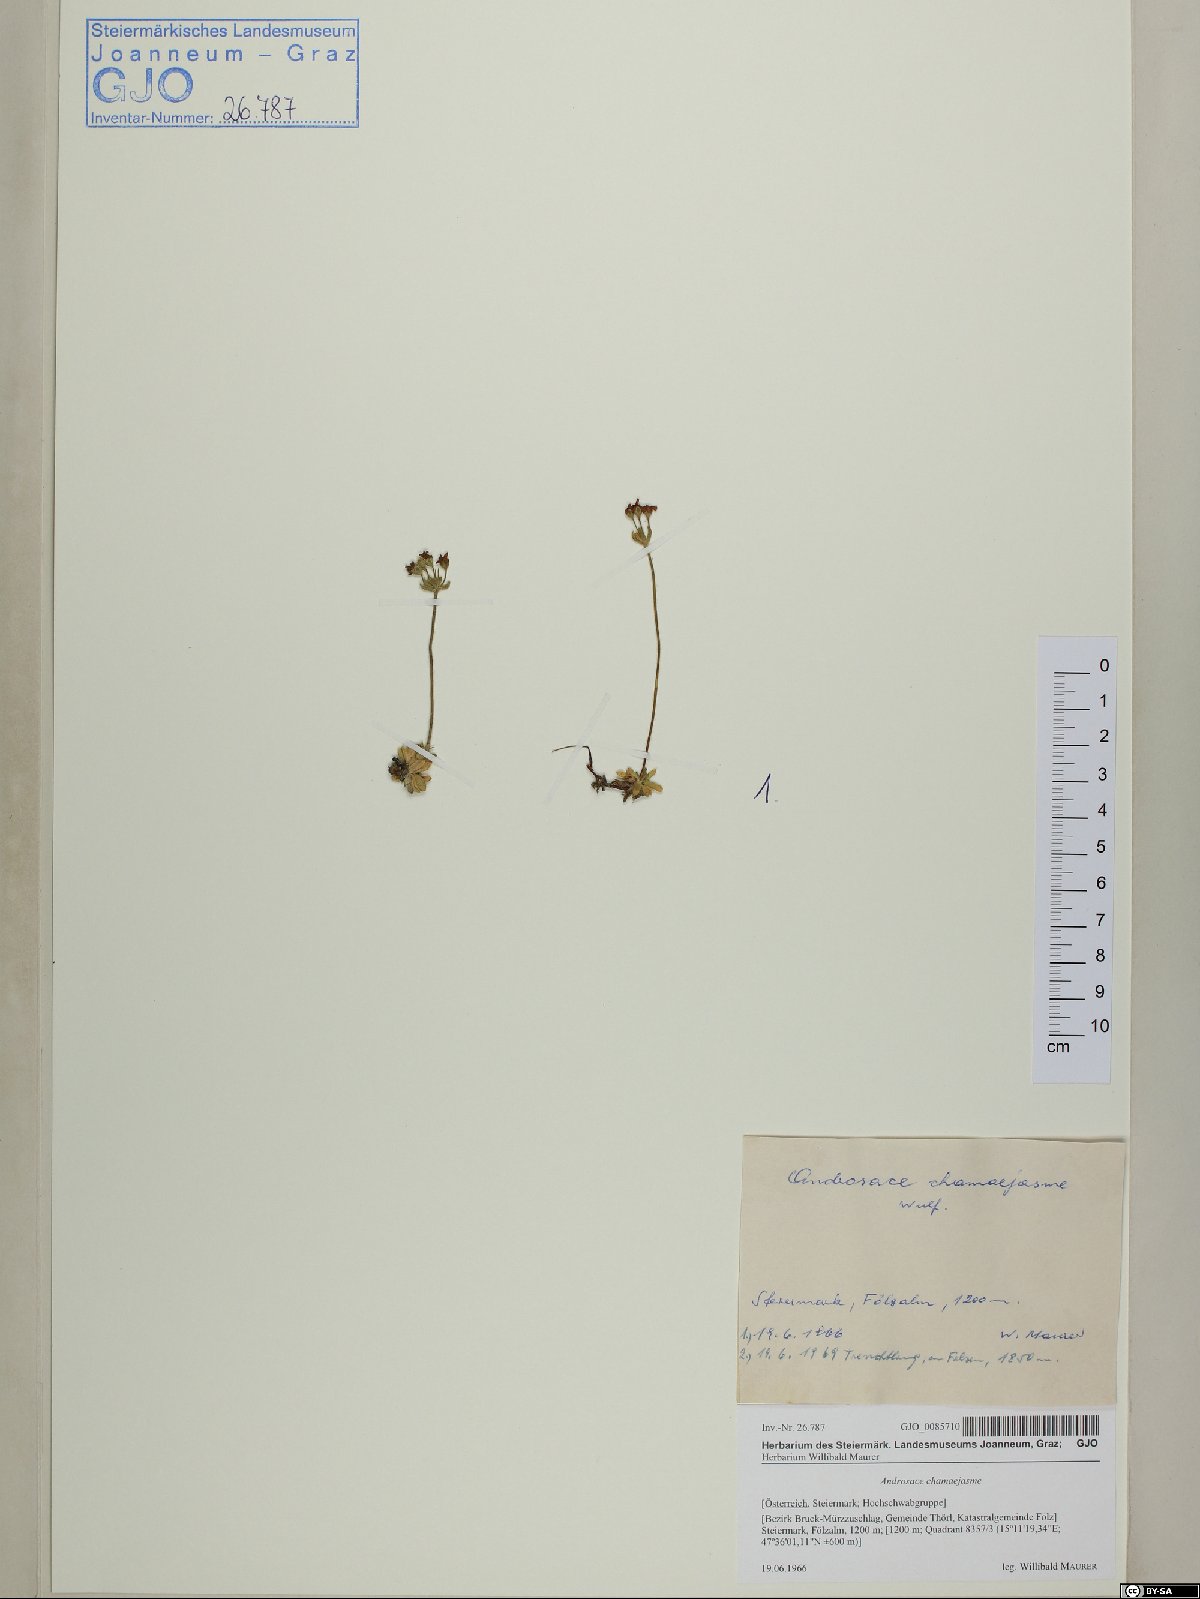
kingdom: Plantae
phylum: Tracheophyta
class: Magnoliopsida
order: Ericales
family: Primulaceae
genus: Androsace
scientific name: Androsace chamaejasme
